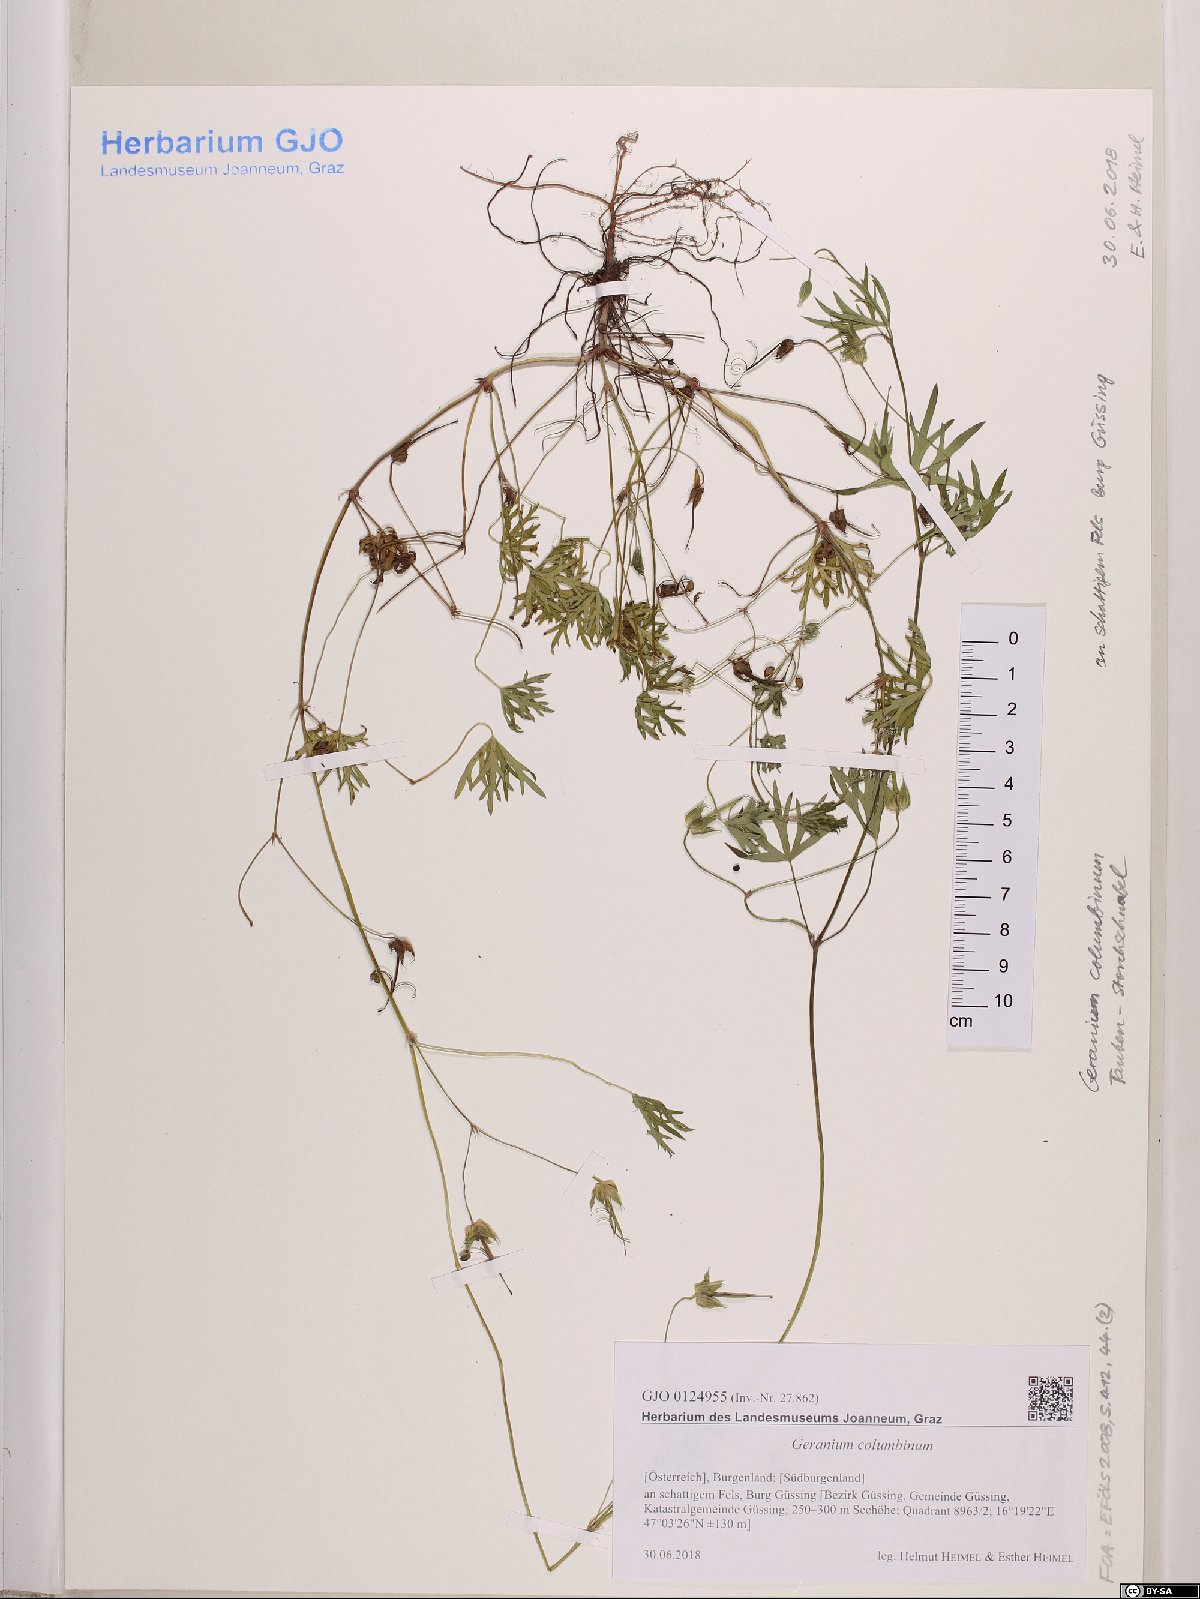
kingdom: Plantae
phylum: Tracheophyta
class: Magnoliopsida
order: Geraniales
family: Geraniaceae
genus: Geranium
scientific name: Geranium columbinum
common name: Long-stalked crane's-bill
